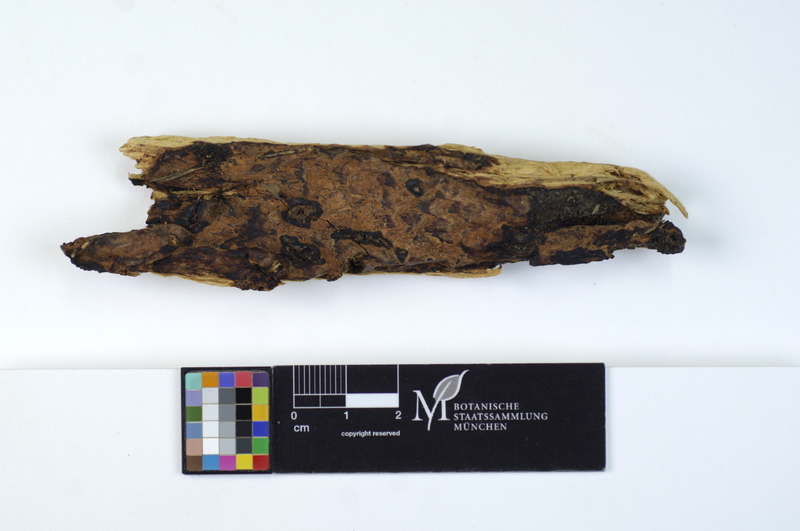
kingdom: Fungi
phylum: Basidiomycota
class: Agaricomycetes
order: Polyporales
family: Polyporaceae
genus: Erastia
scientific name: Erastia salmonicolor
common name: Salmon bracket
